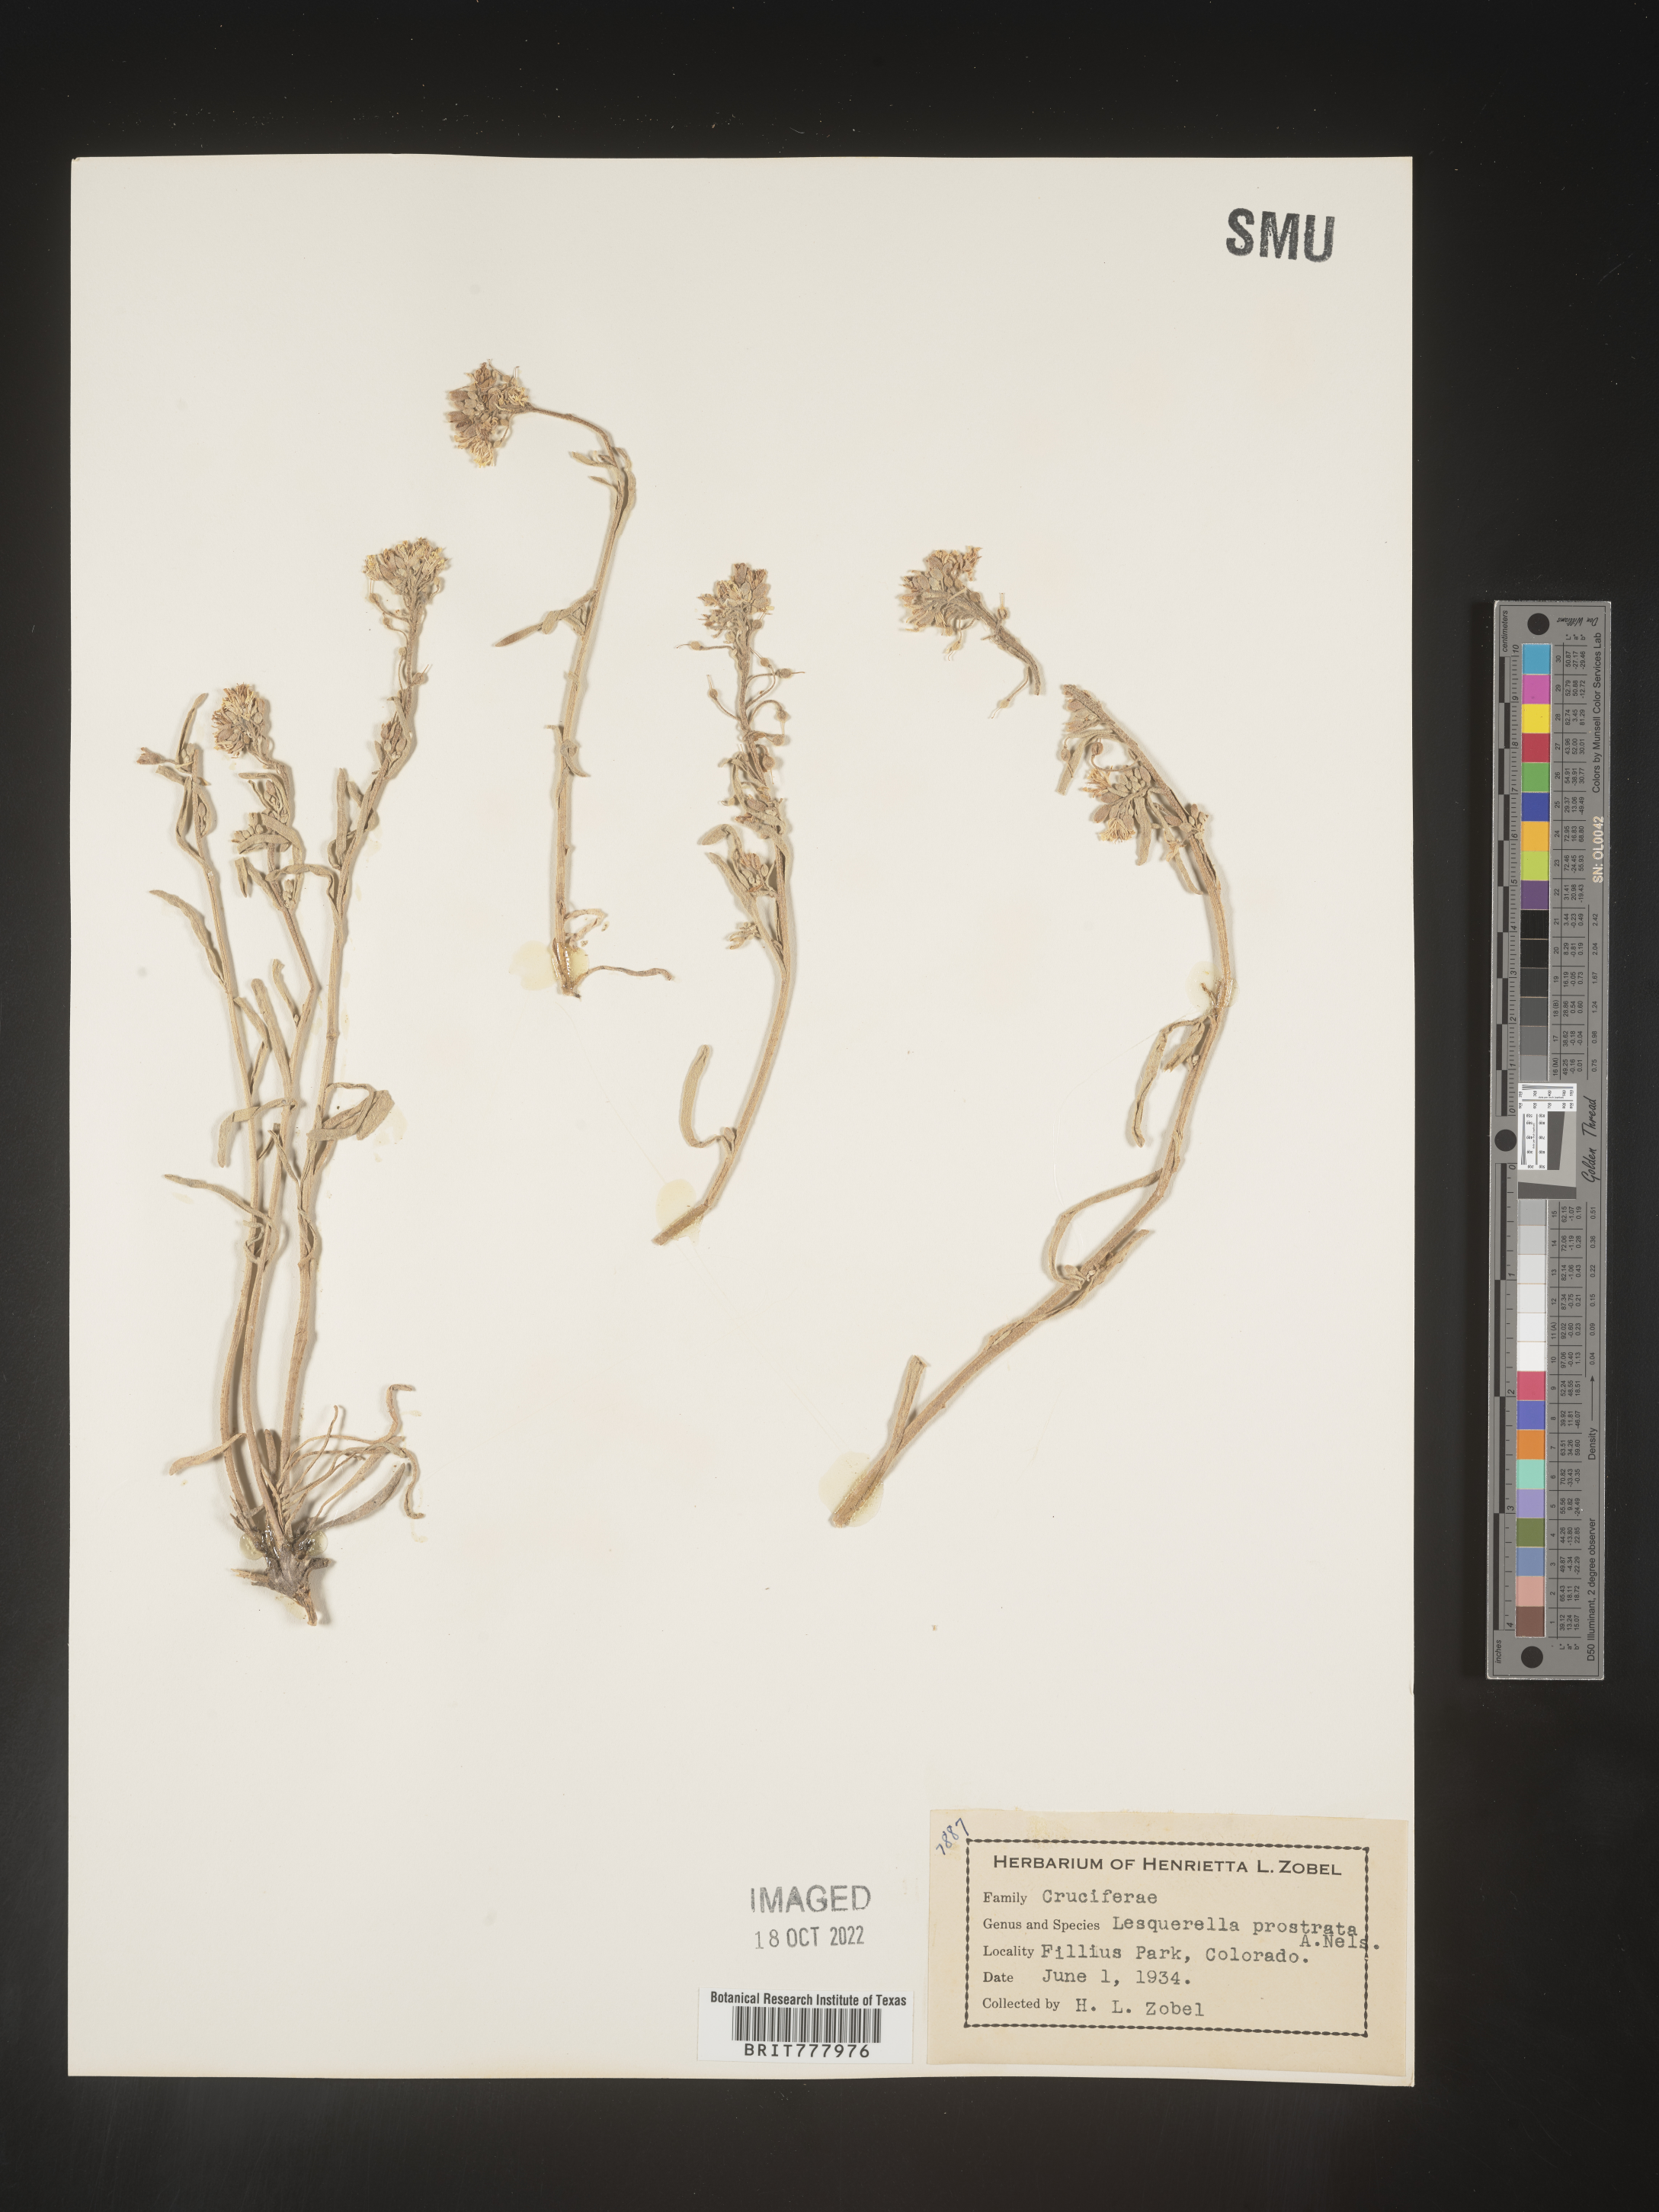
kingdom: Chromista
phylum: Cercozoa
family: Psammonobiotidae
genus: Lesquerella
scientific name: Lesquerella
